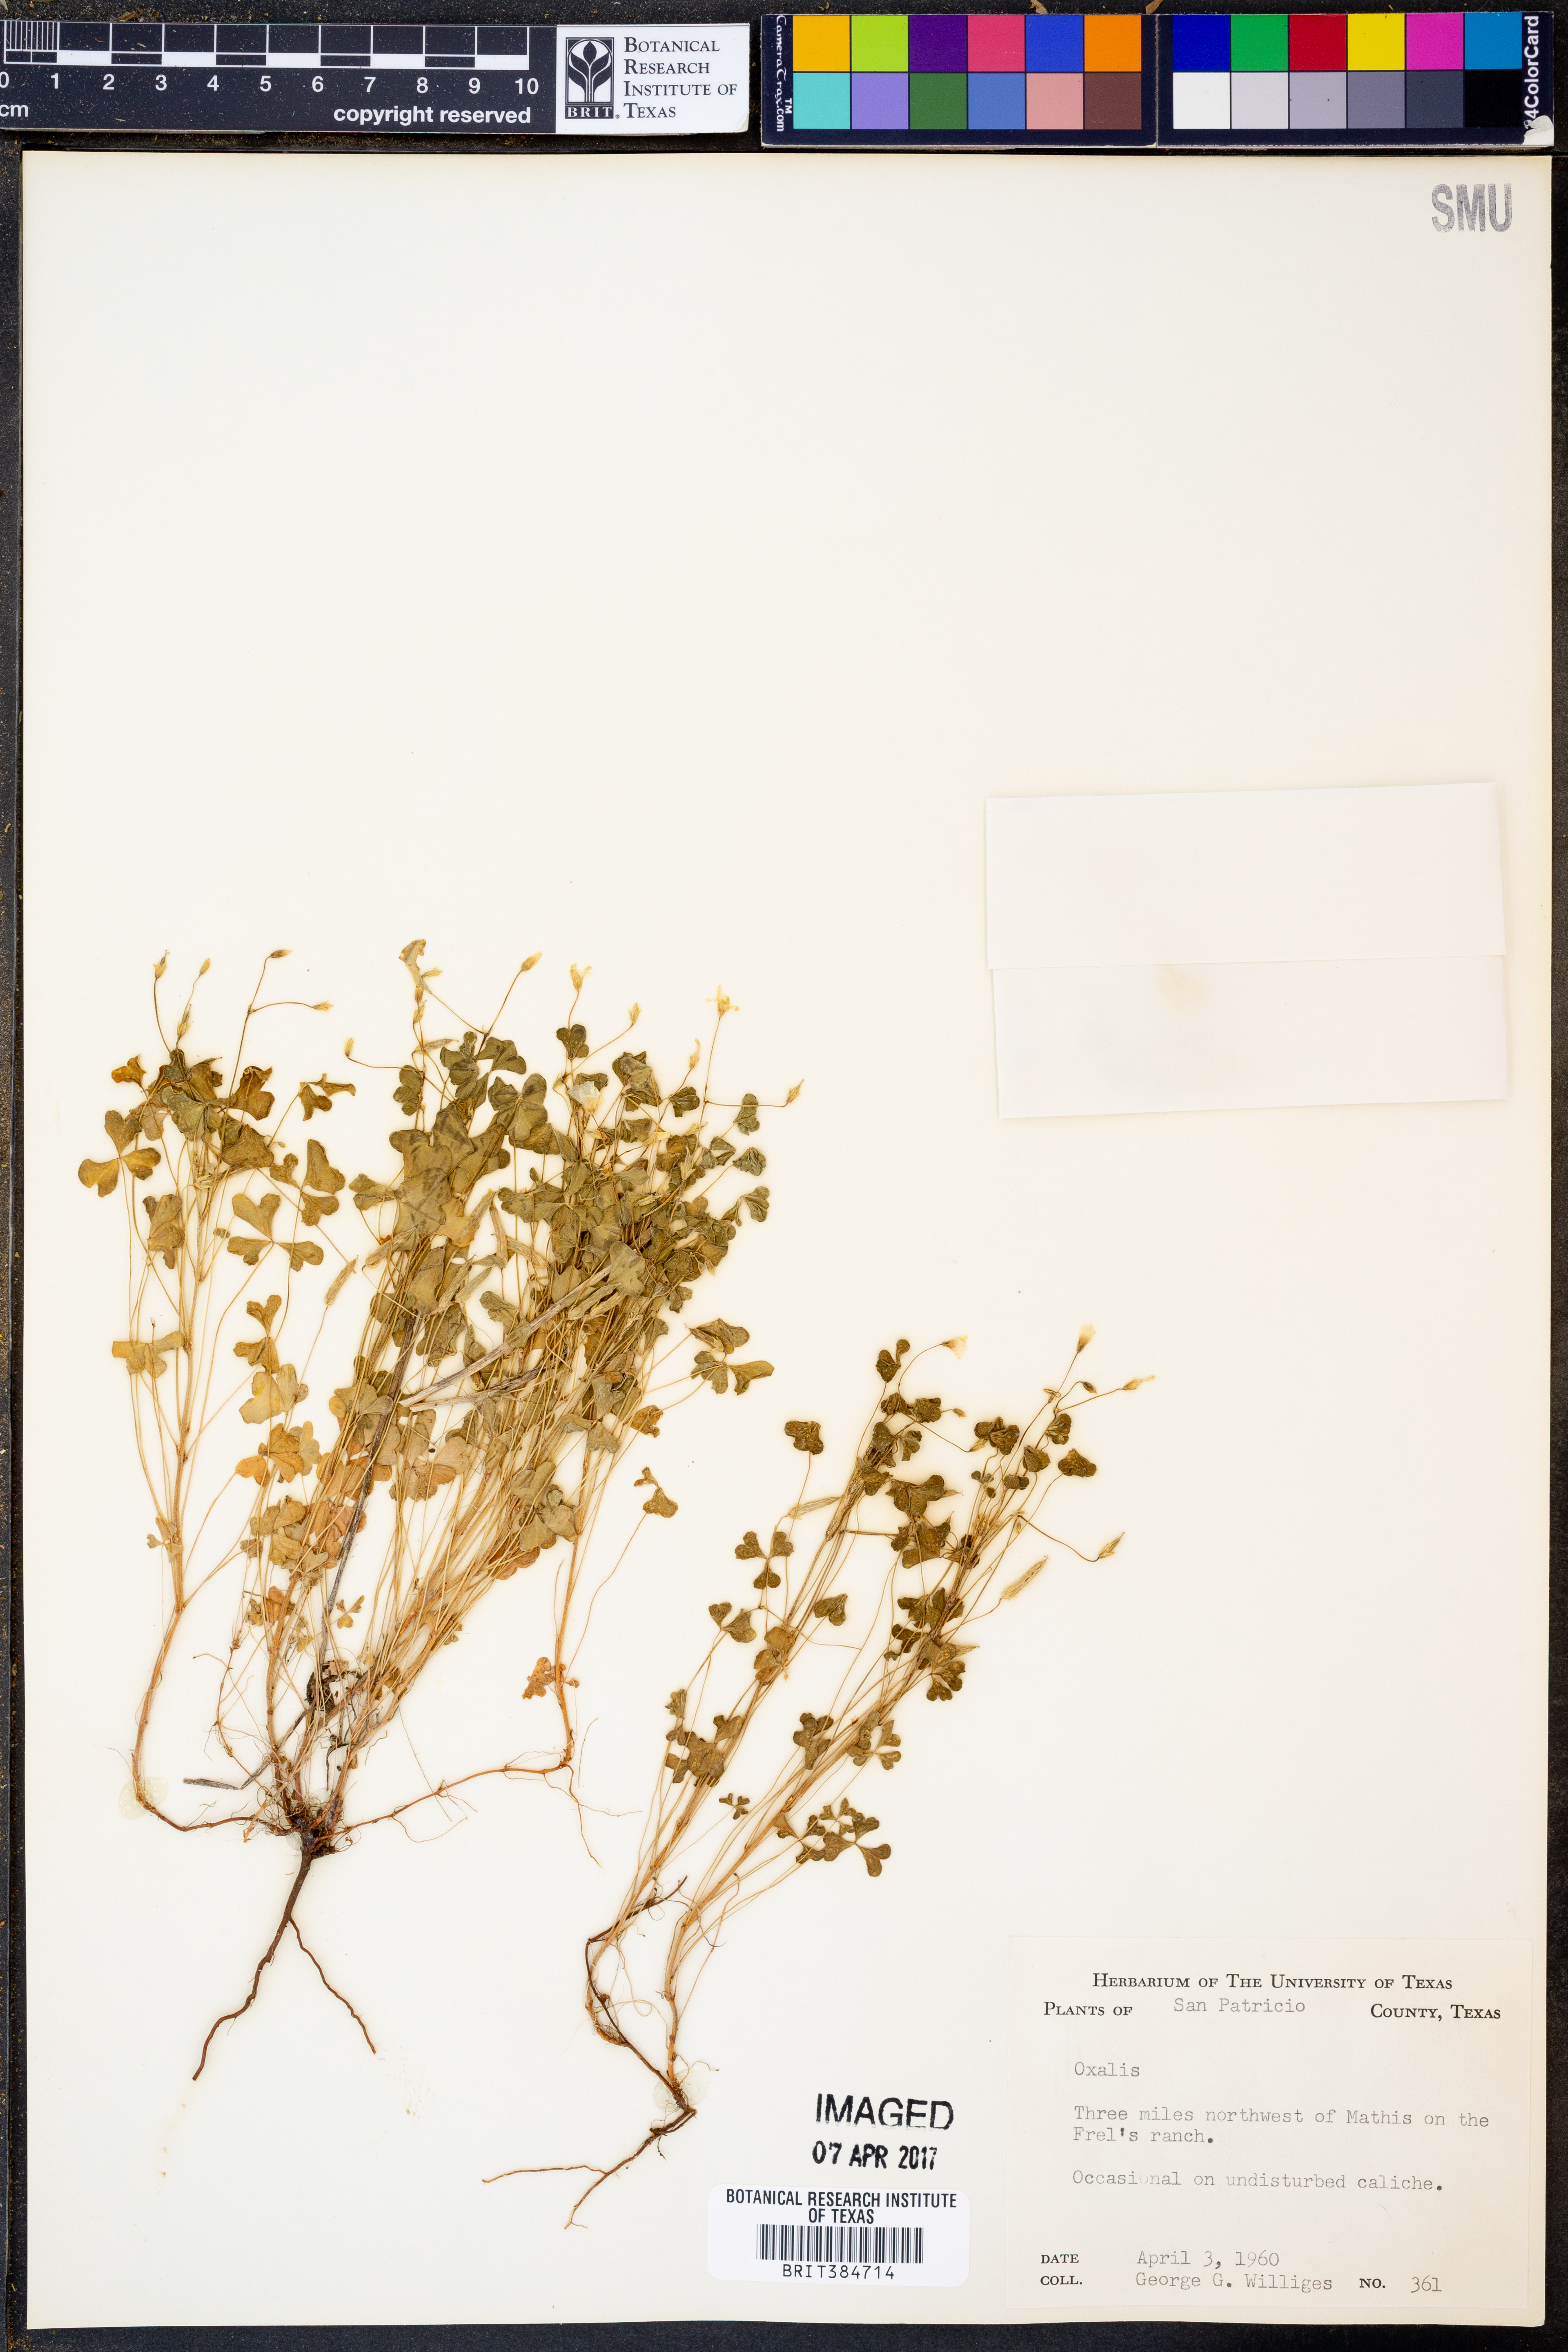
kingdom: Plantae
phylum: Tracheophyta
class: Magnoliopsida
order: Oxalidales
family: Oxalidaceae
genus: Oxalis
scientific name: Oxalis
